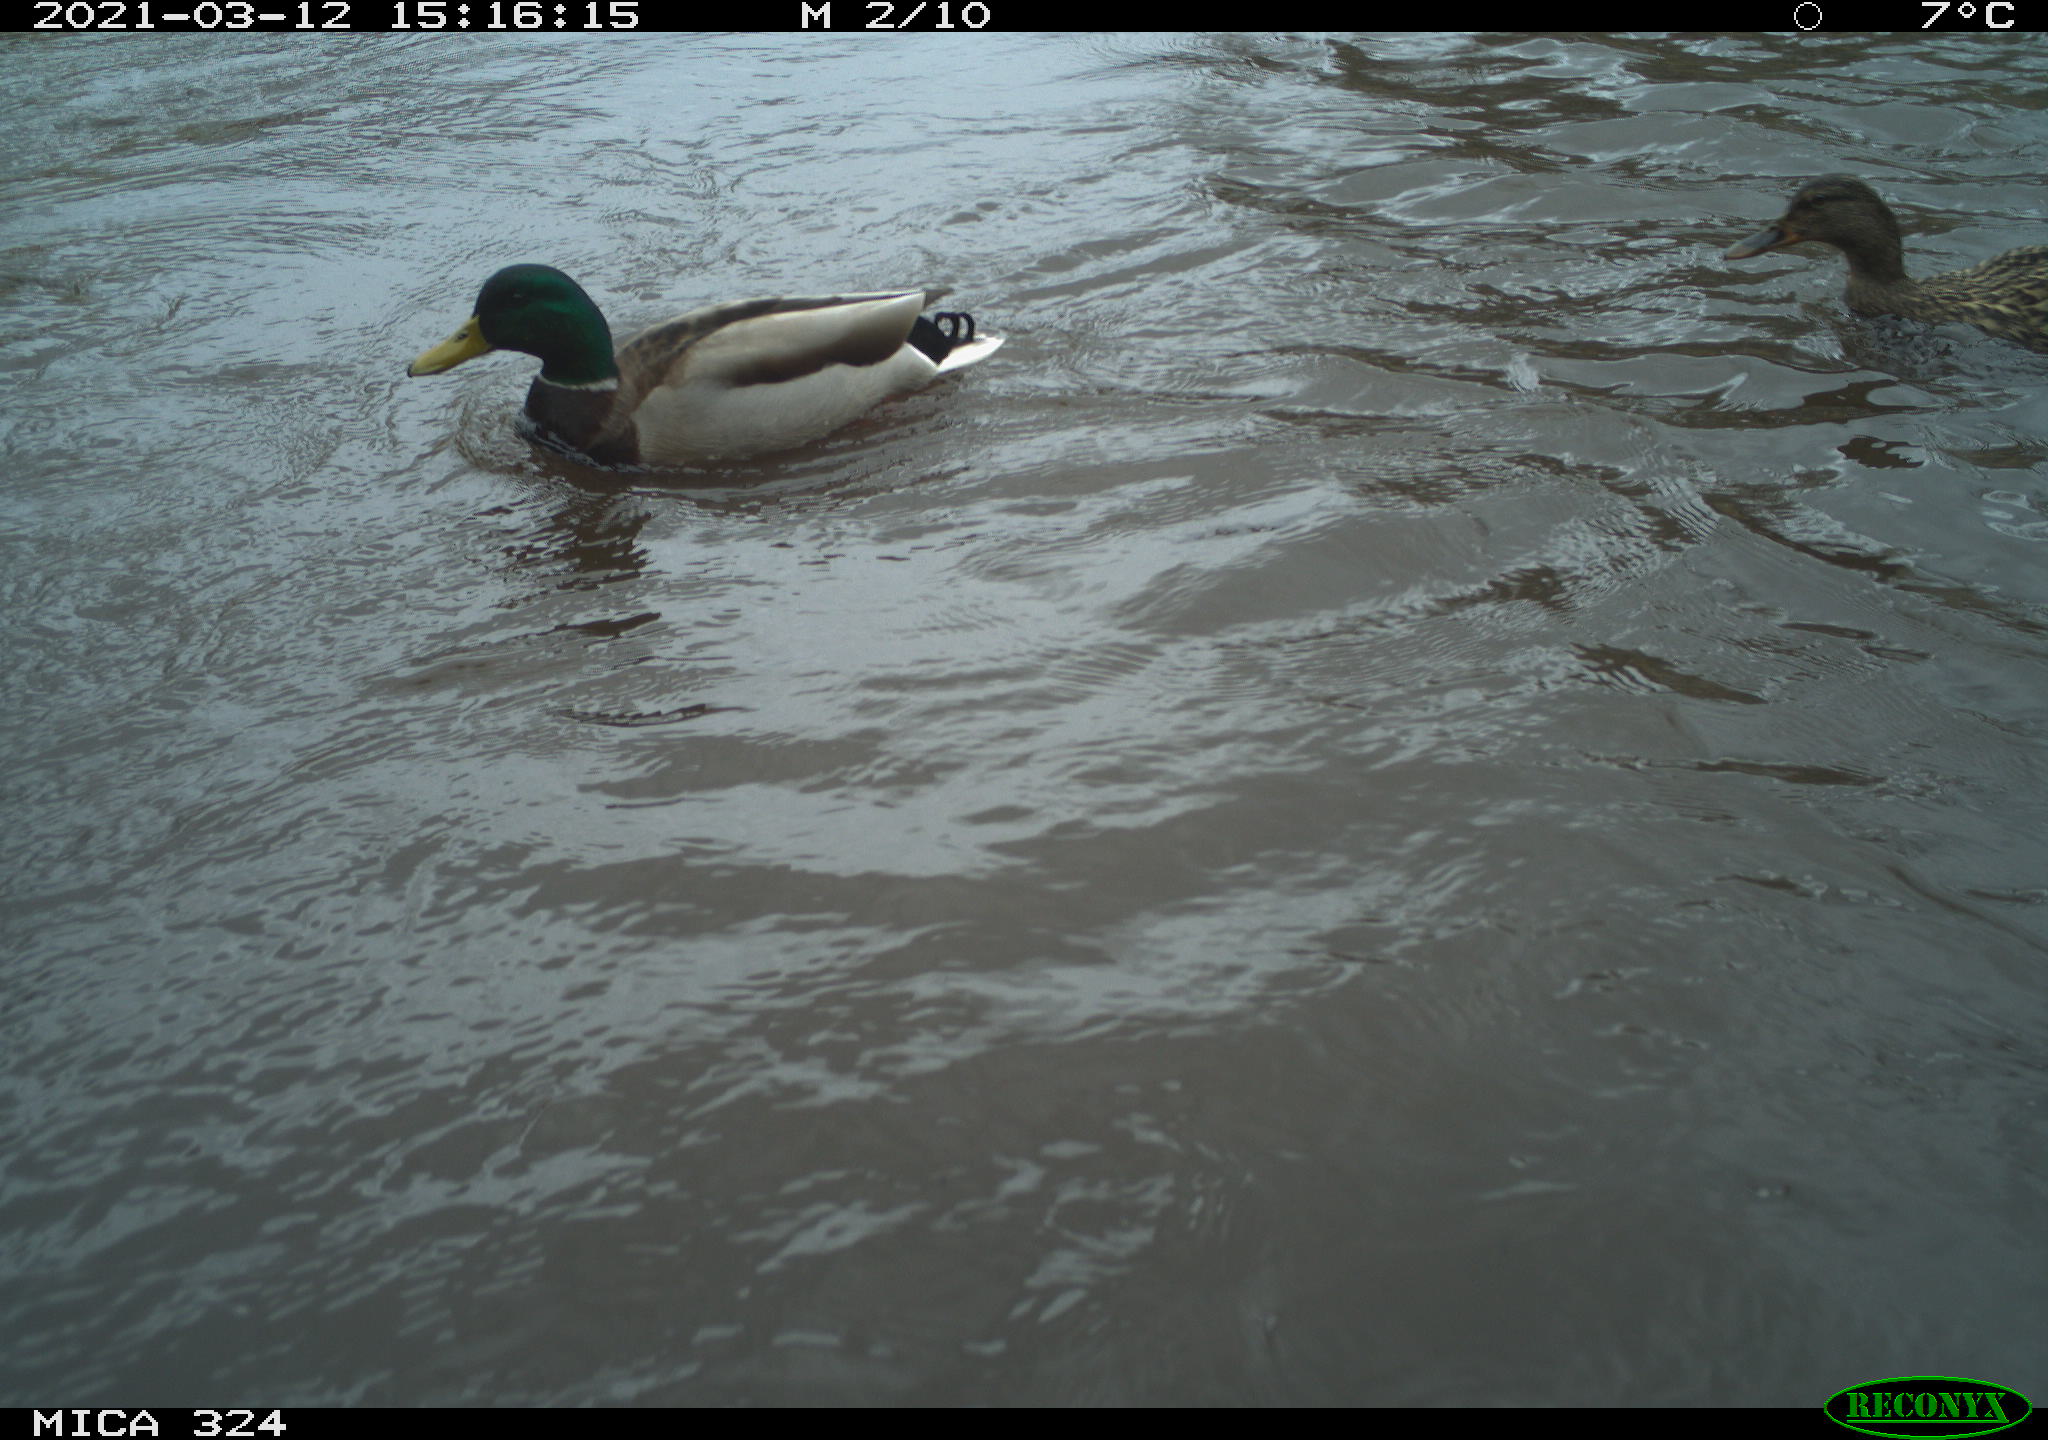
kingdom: Animalia
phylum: Chordata
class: Aves
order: Anseriformes
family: Anatidae
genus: Anas
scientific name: Anas platyrhynchos
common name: Mallard
